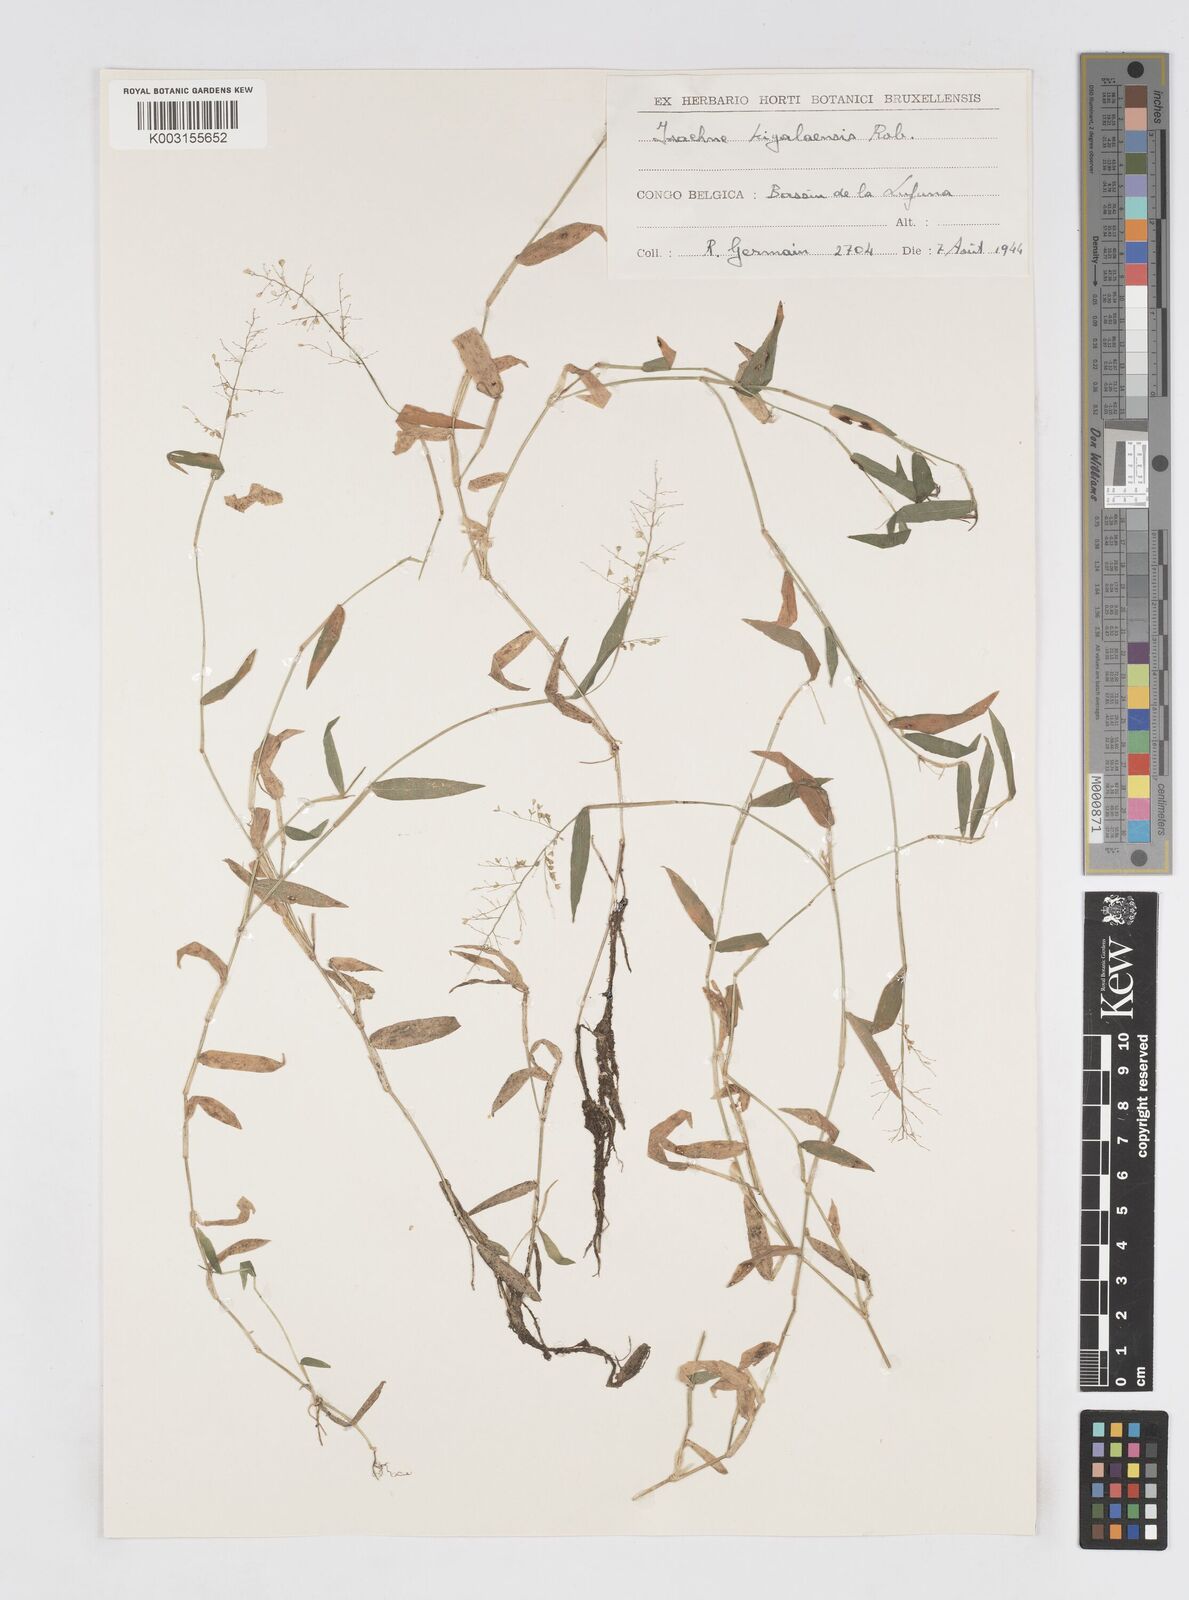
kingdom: Plantae
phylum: Tracheophyta
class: Liliopsida
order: Poales
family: Poaceae
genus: Isachne
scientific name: Isachne kiyalaensis
